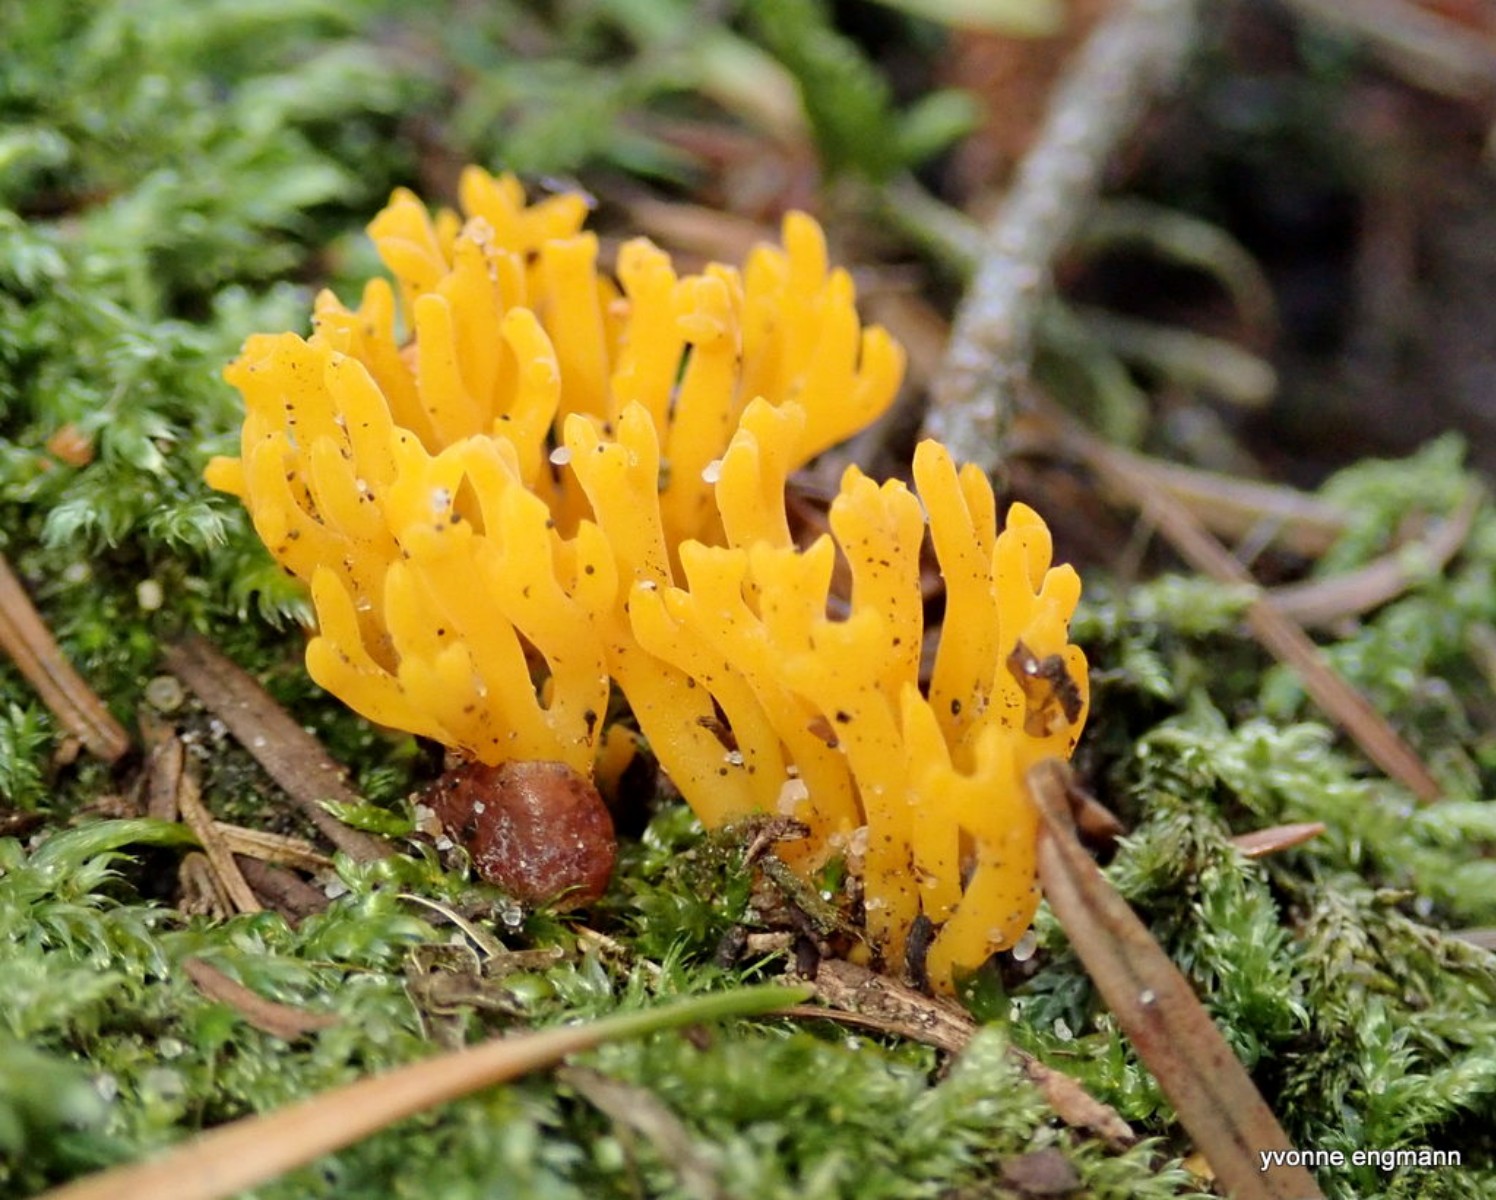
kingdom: Fungi
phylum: Basidiomycota
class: Dacrymycetes
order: Dacrymycetales
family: Dacrymycetaceae
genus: Calocera
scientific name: Calocera viscosa
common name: almindelig guldgaffel
